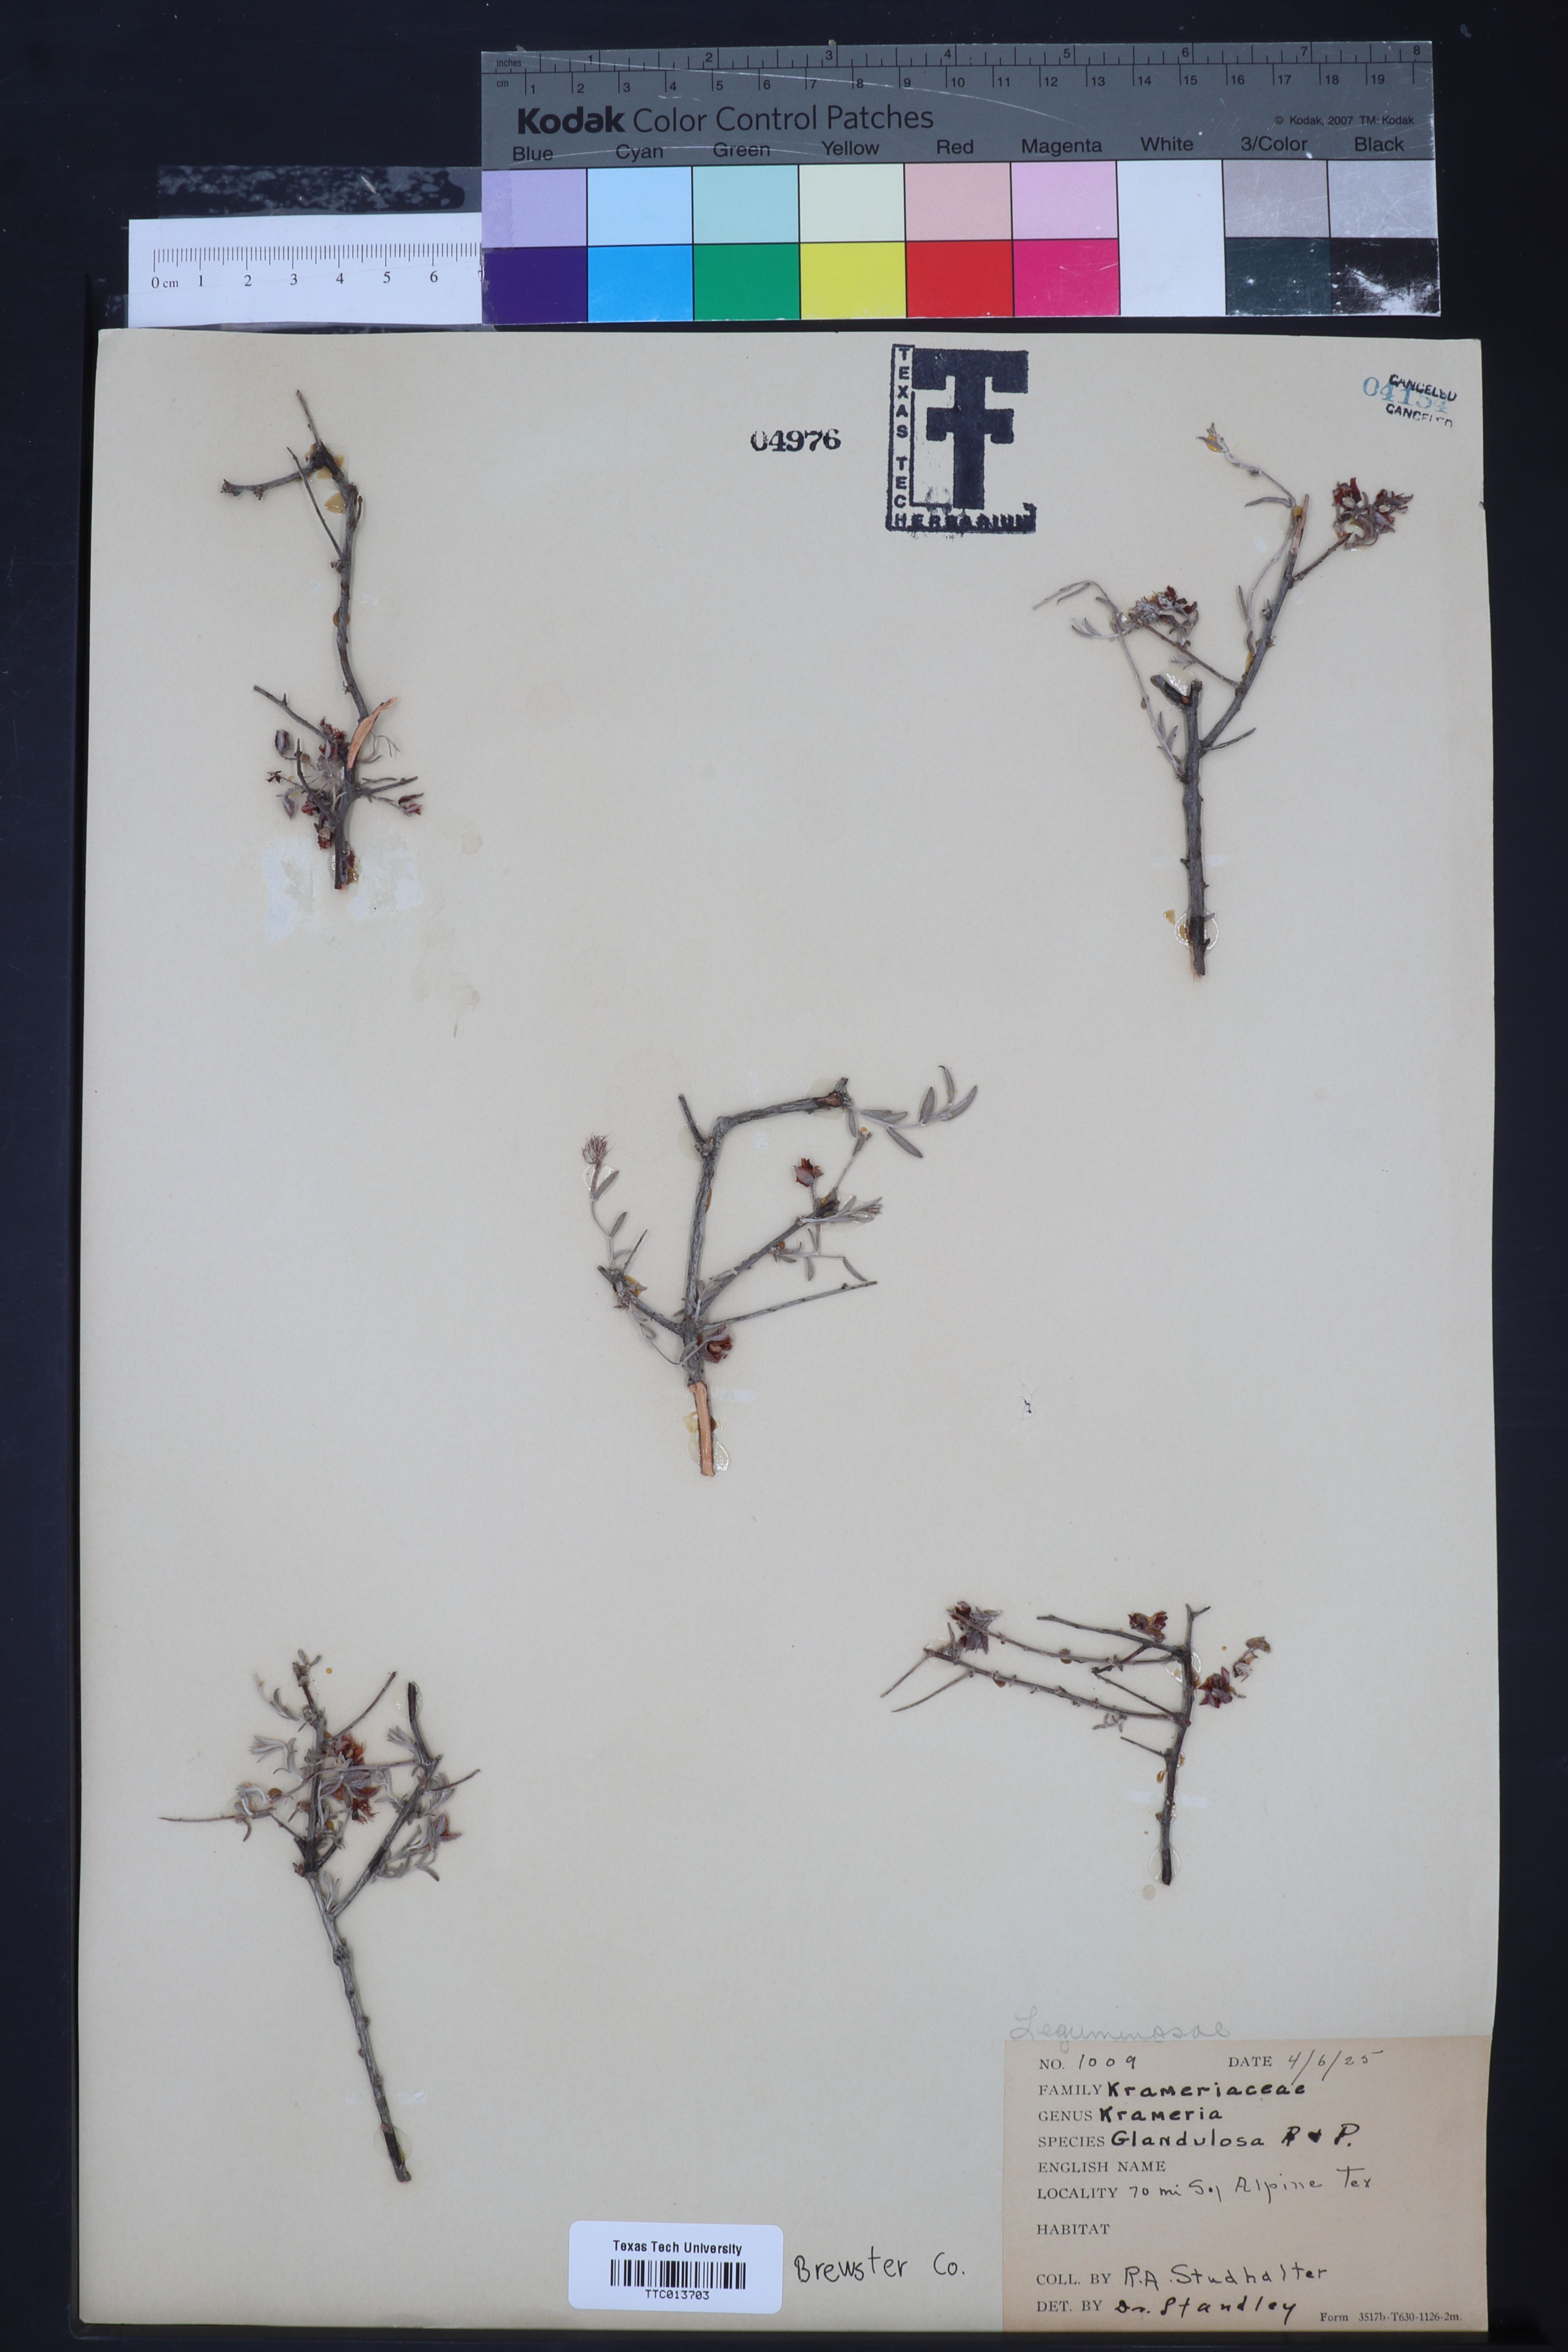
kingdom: Plantae
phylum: Tracheophyta
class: Magnoliopsida
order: Zygophyllales
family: Krameriaceae
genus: Krameria
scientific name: Krameria erecta
